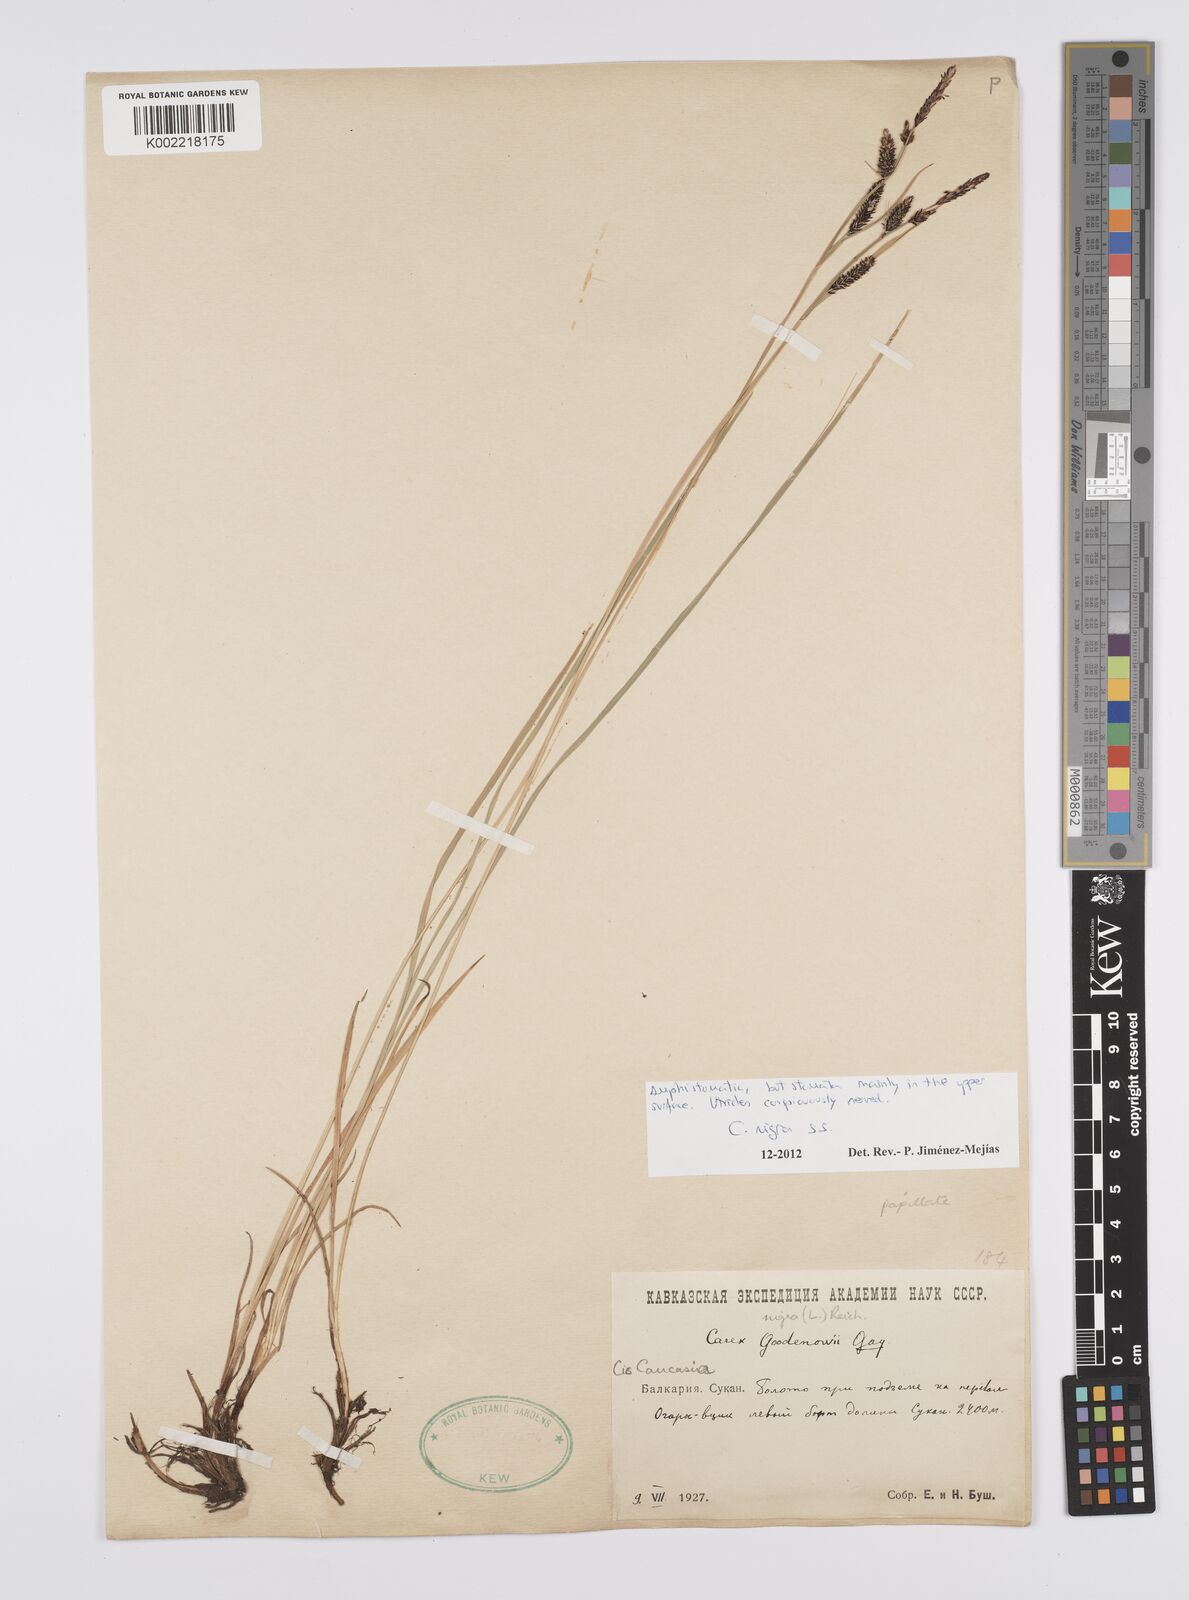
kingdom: Plantae
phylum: Tracheophyta
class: Liliopsida
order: Poales
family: Cyperaceae
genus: Carex
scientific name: Carex nigra
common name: Common sedge
